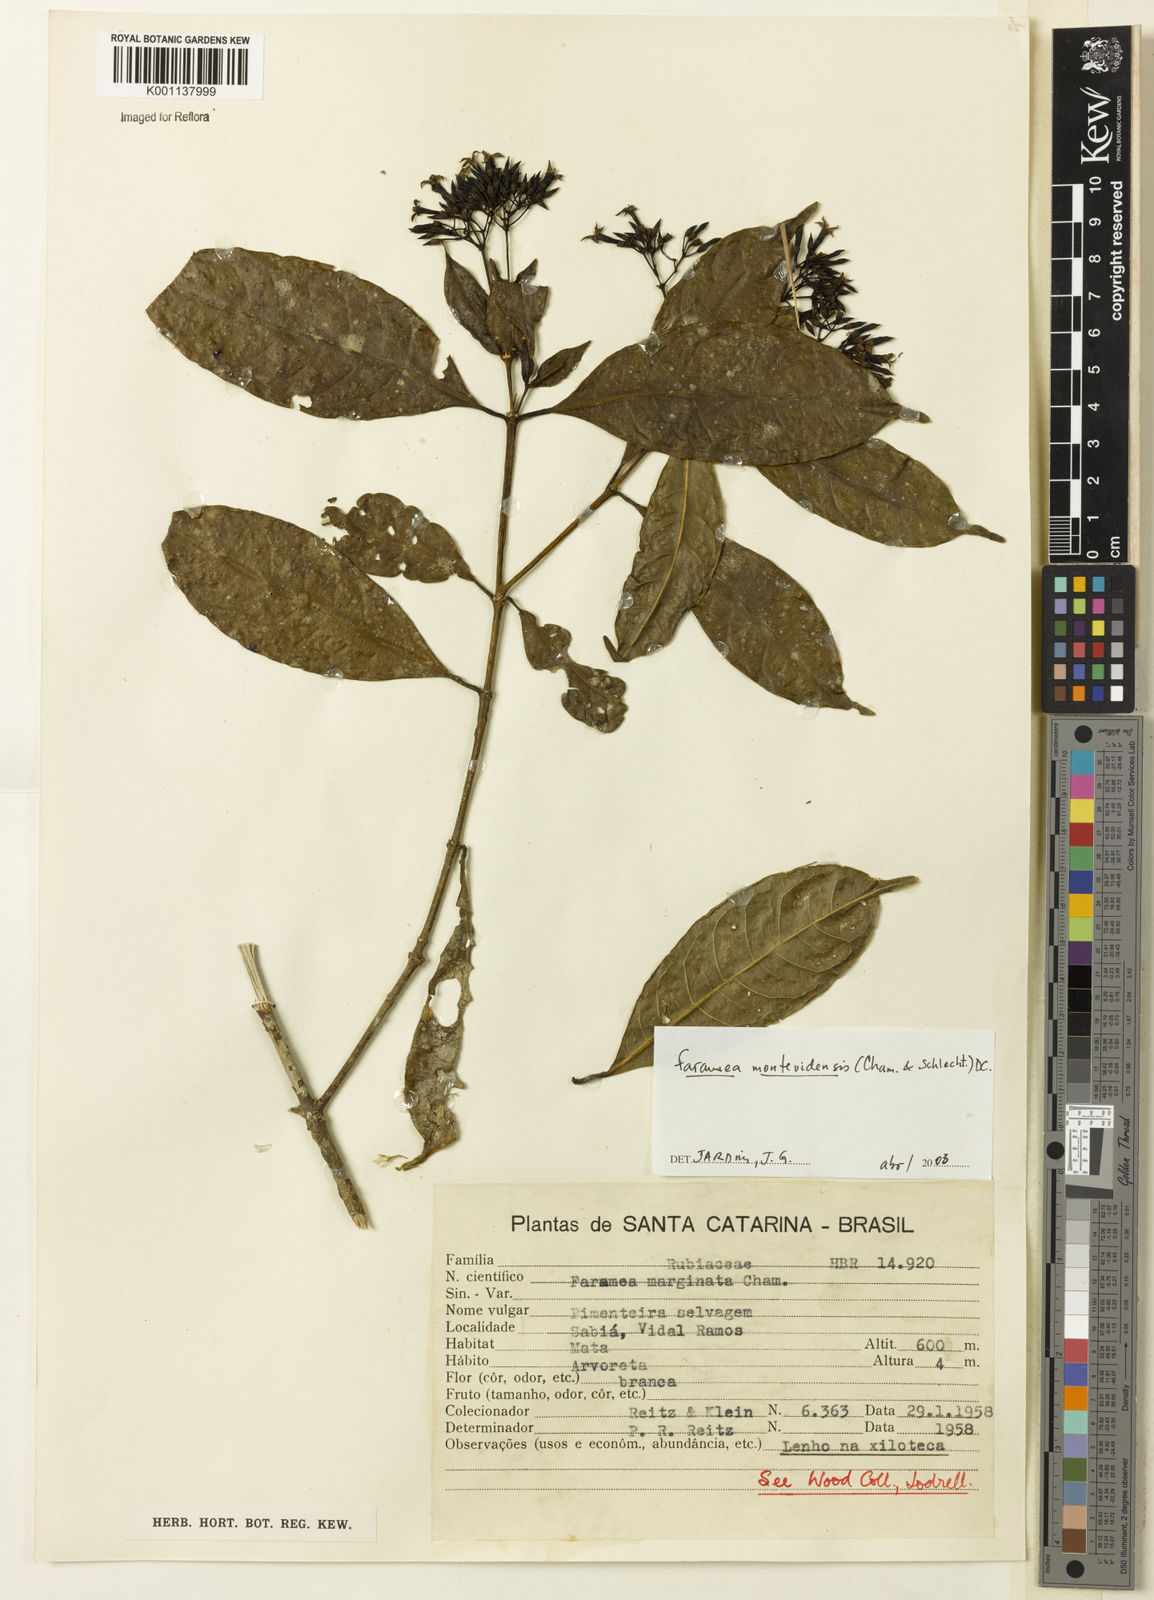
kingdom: Plantae
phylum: Tracheophyta
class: Magnoliopsida
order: Gentianales
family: Rubiaceae
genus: Faramea
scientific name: Faramea montevidensis
